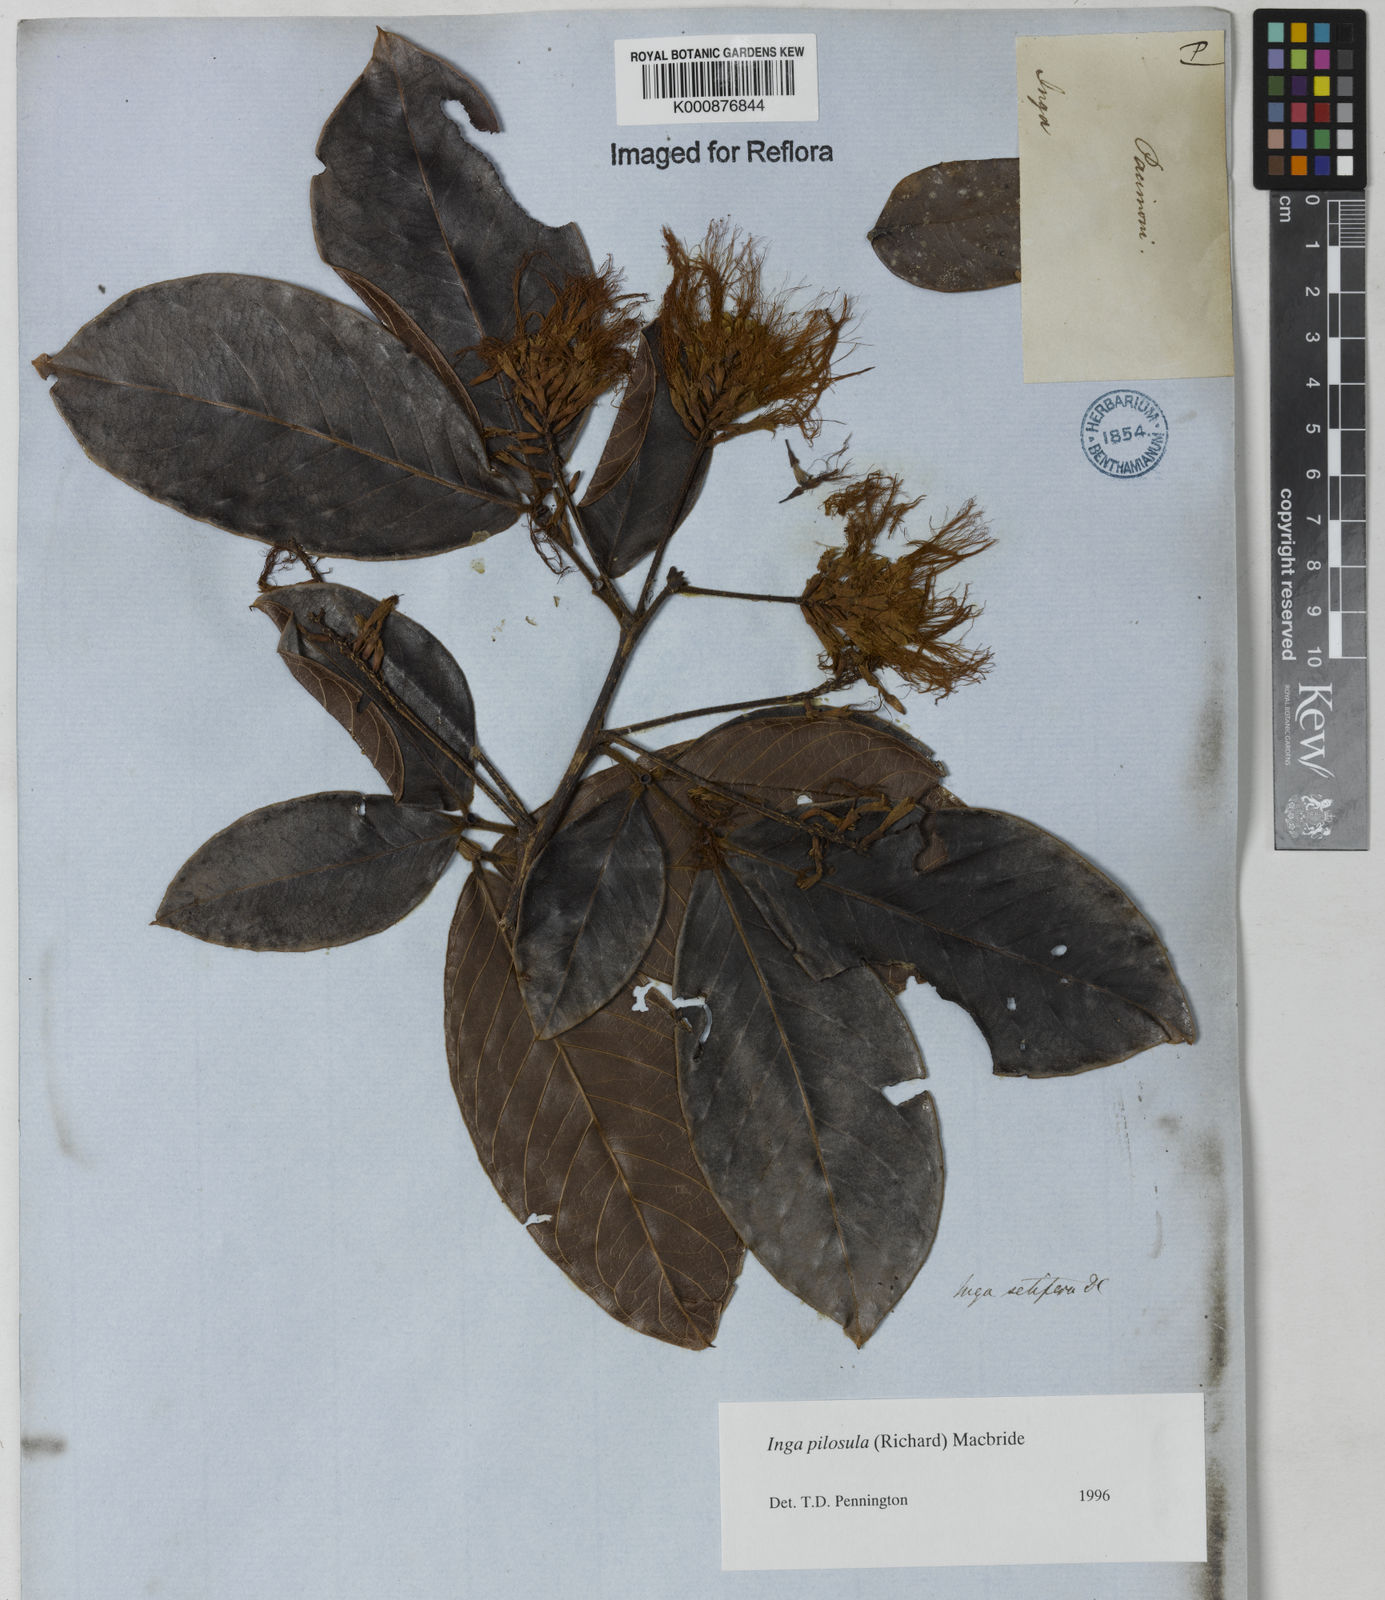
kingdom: Plantae
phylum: Tracheophyta
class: Magnoliopsida
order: Fabales
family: Fabaceae
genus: Inga
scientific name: Inga pilosula
